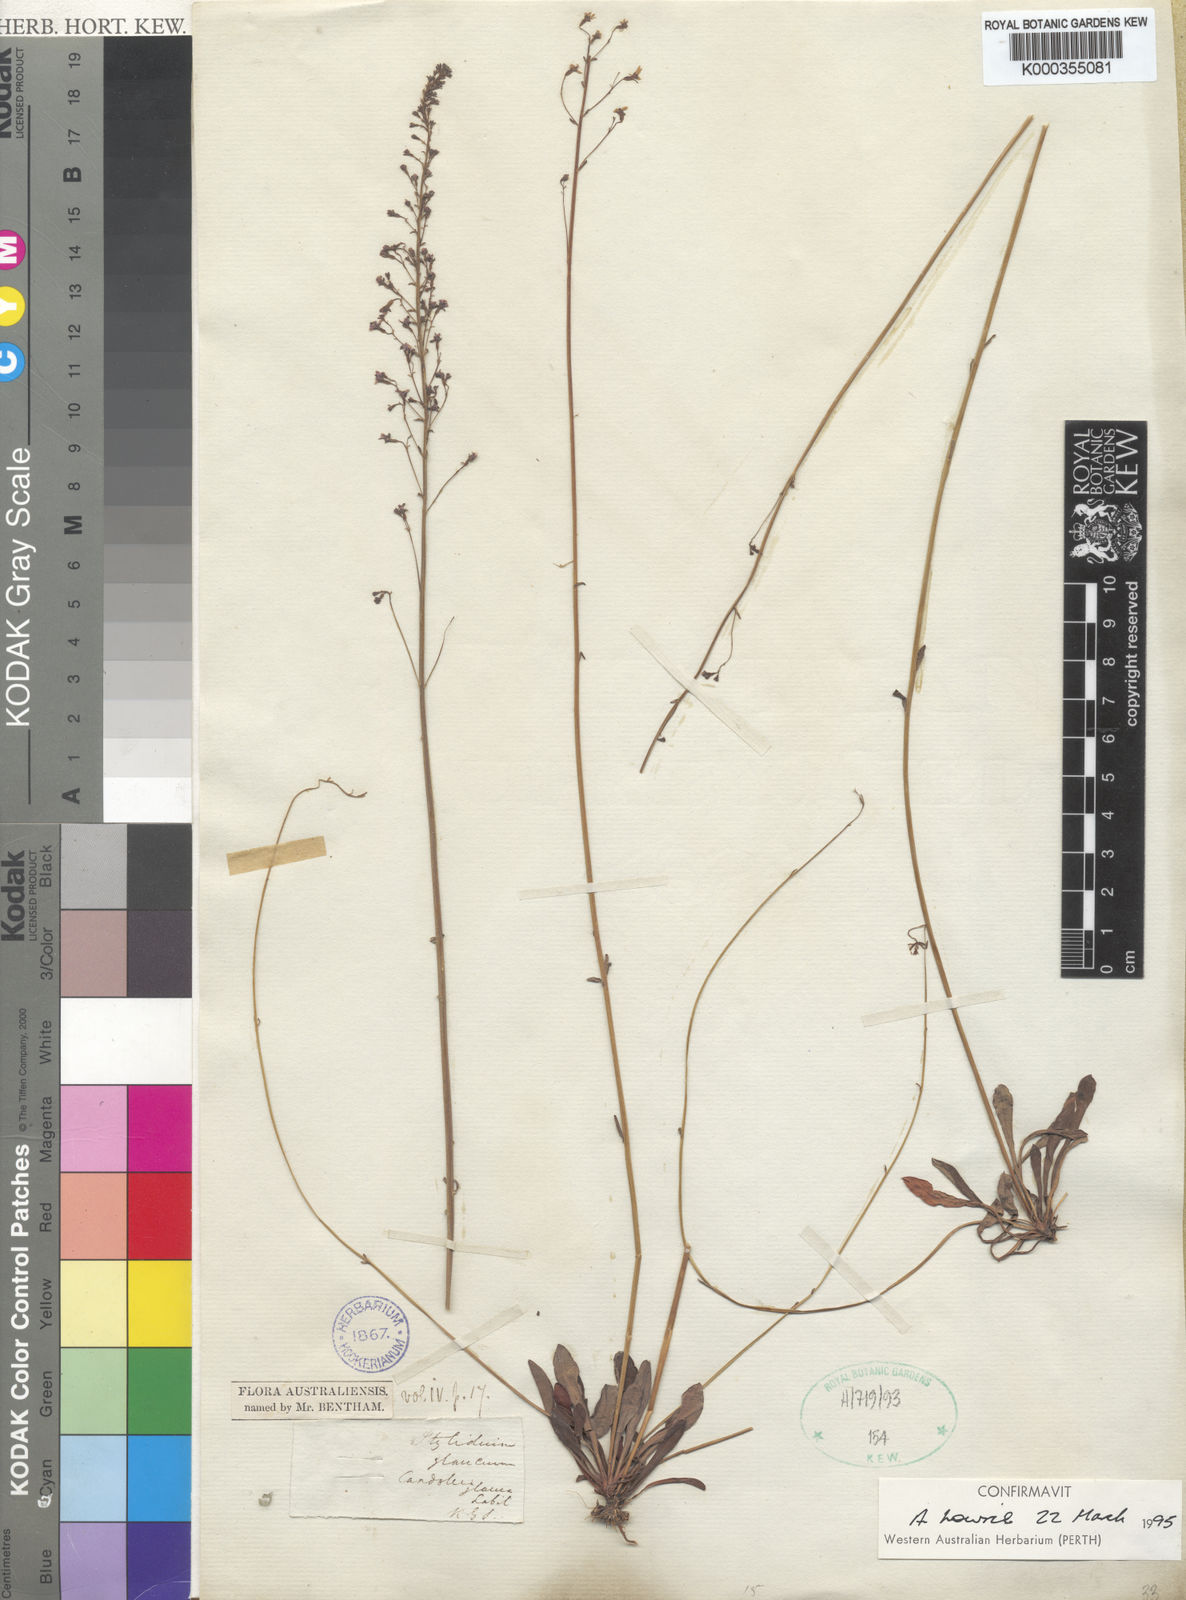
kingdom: Plantae
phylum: Tracheophyta
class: Magnoliopsida
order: Asterales
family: Stylidiaceae
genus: Stylidium
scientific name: Stylidium glaucum
